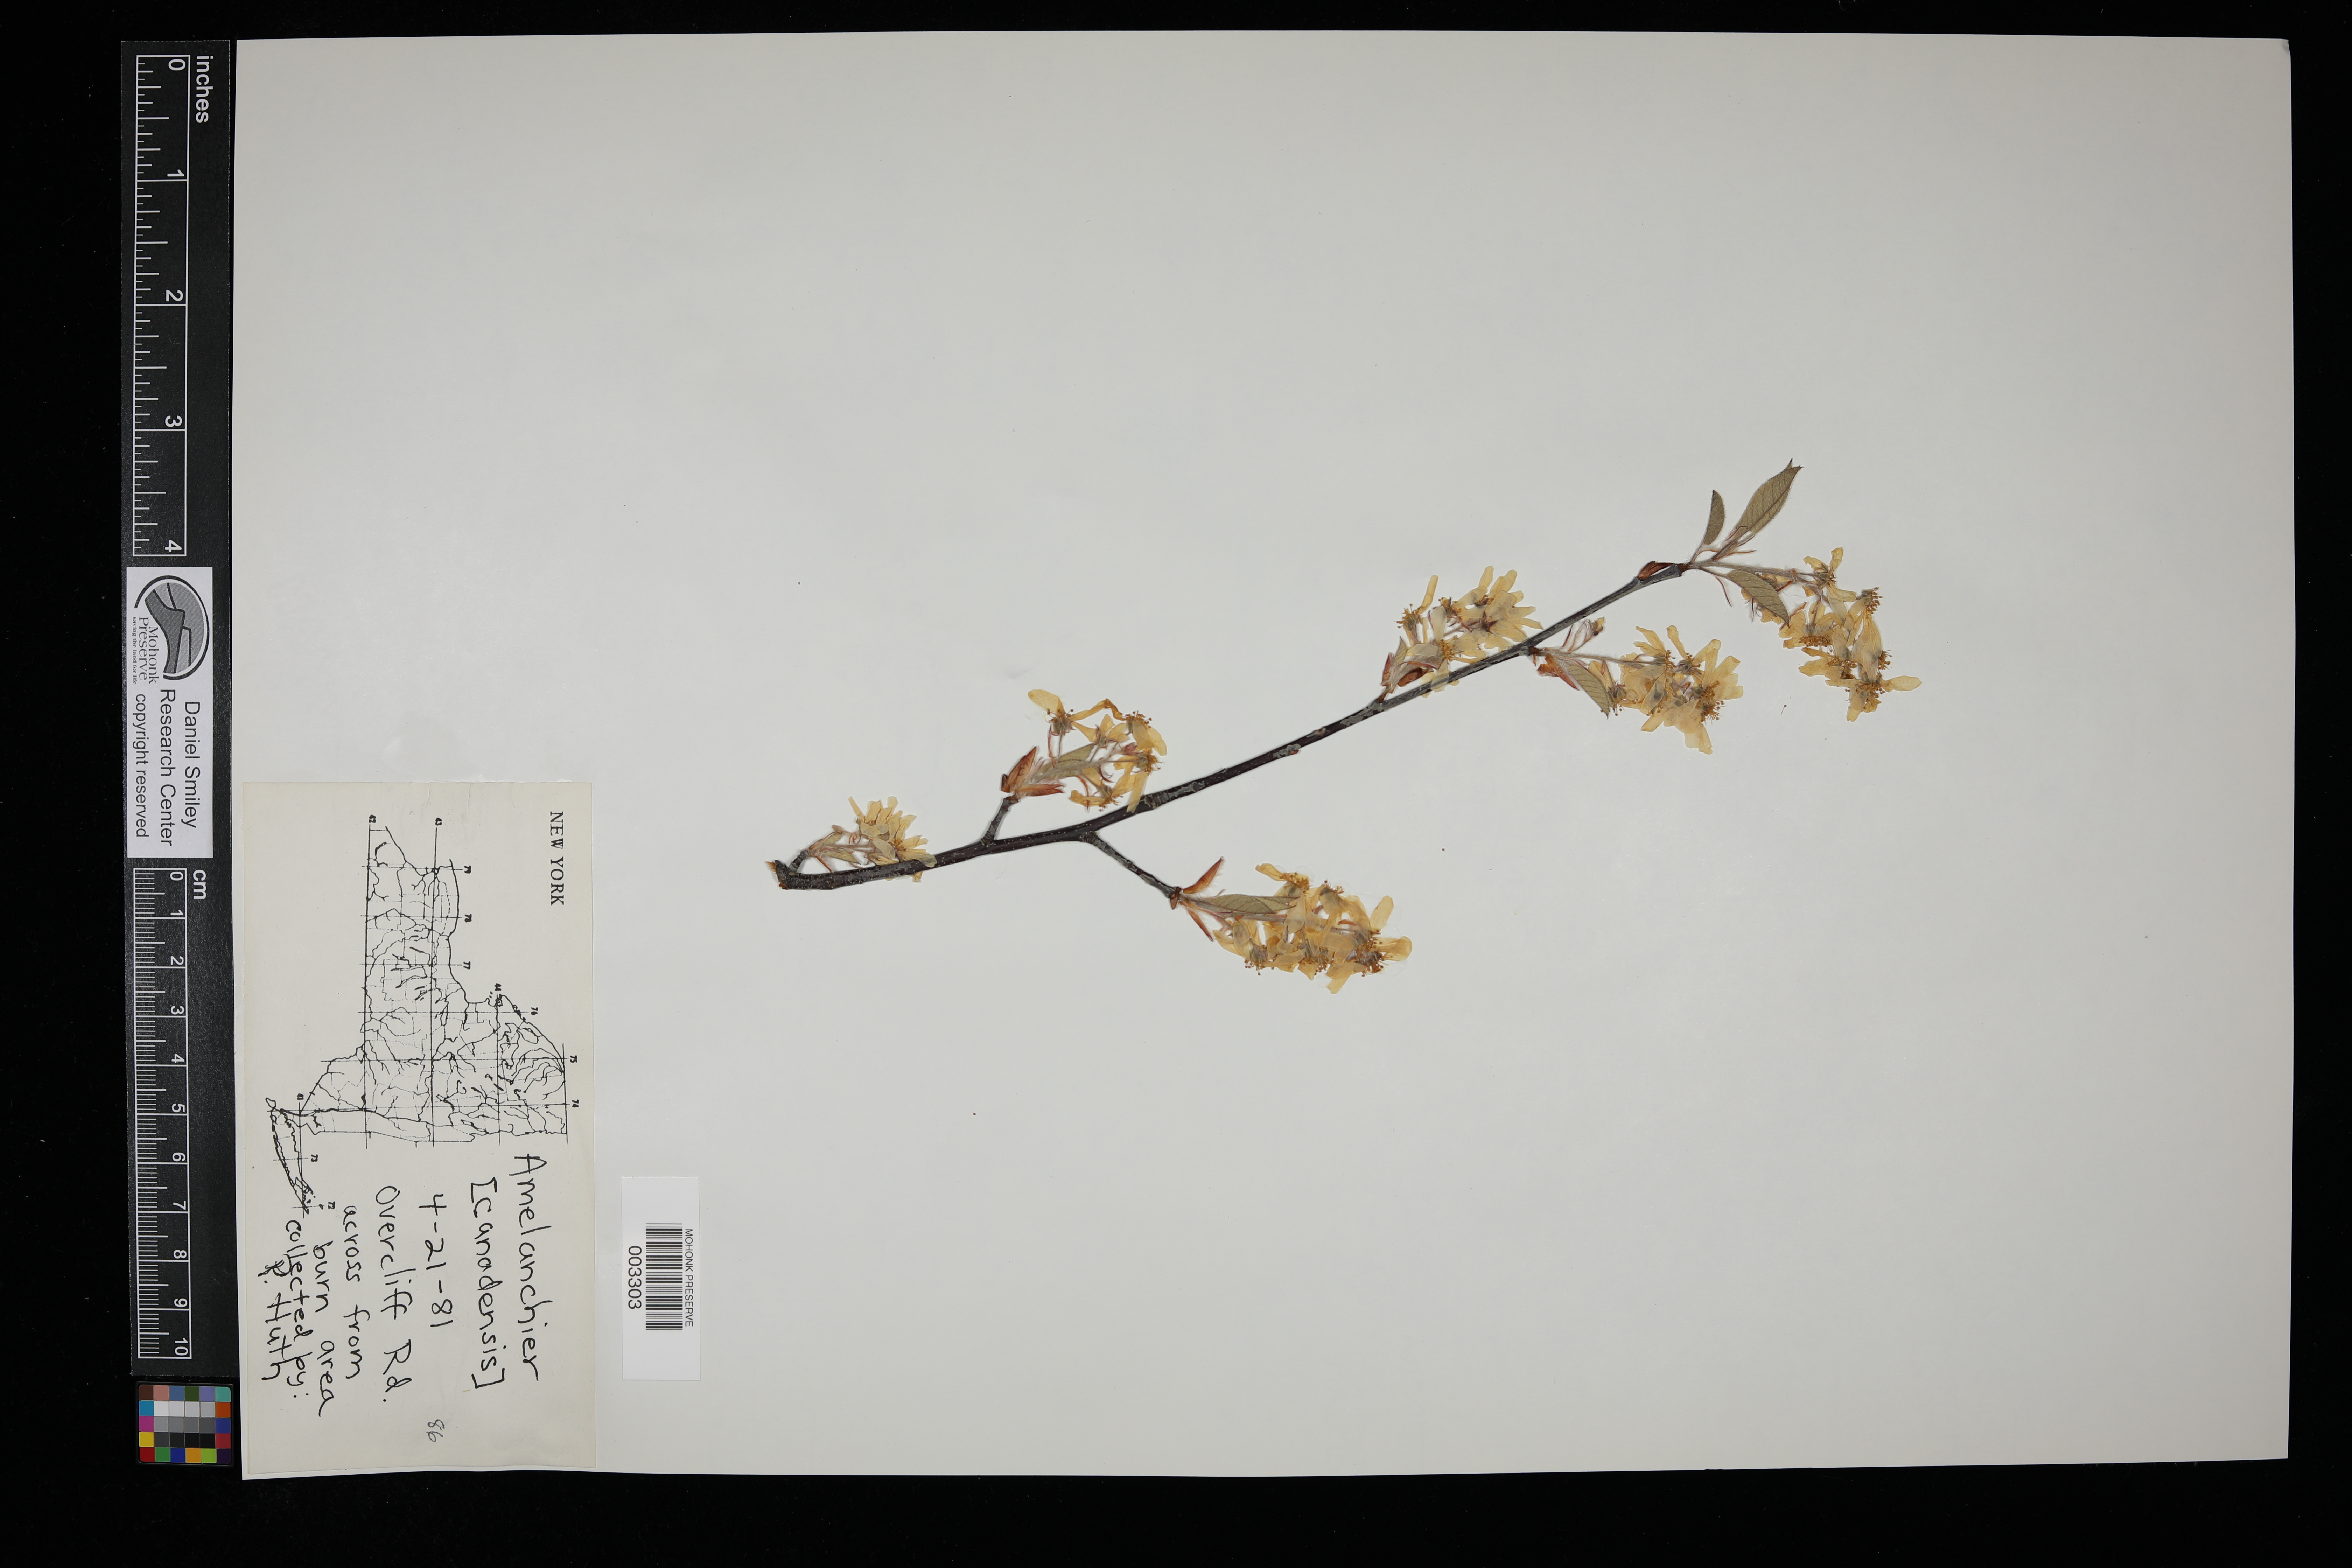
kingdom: Plantae
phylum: Tracheophyta
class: Magnoliopsida
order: Rosales
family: Rosaceae
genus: Amelanchier
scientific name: Amelanchier arborea
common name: Downy serviceberry
